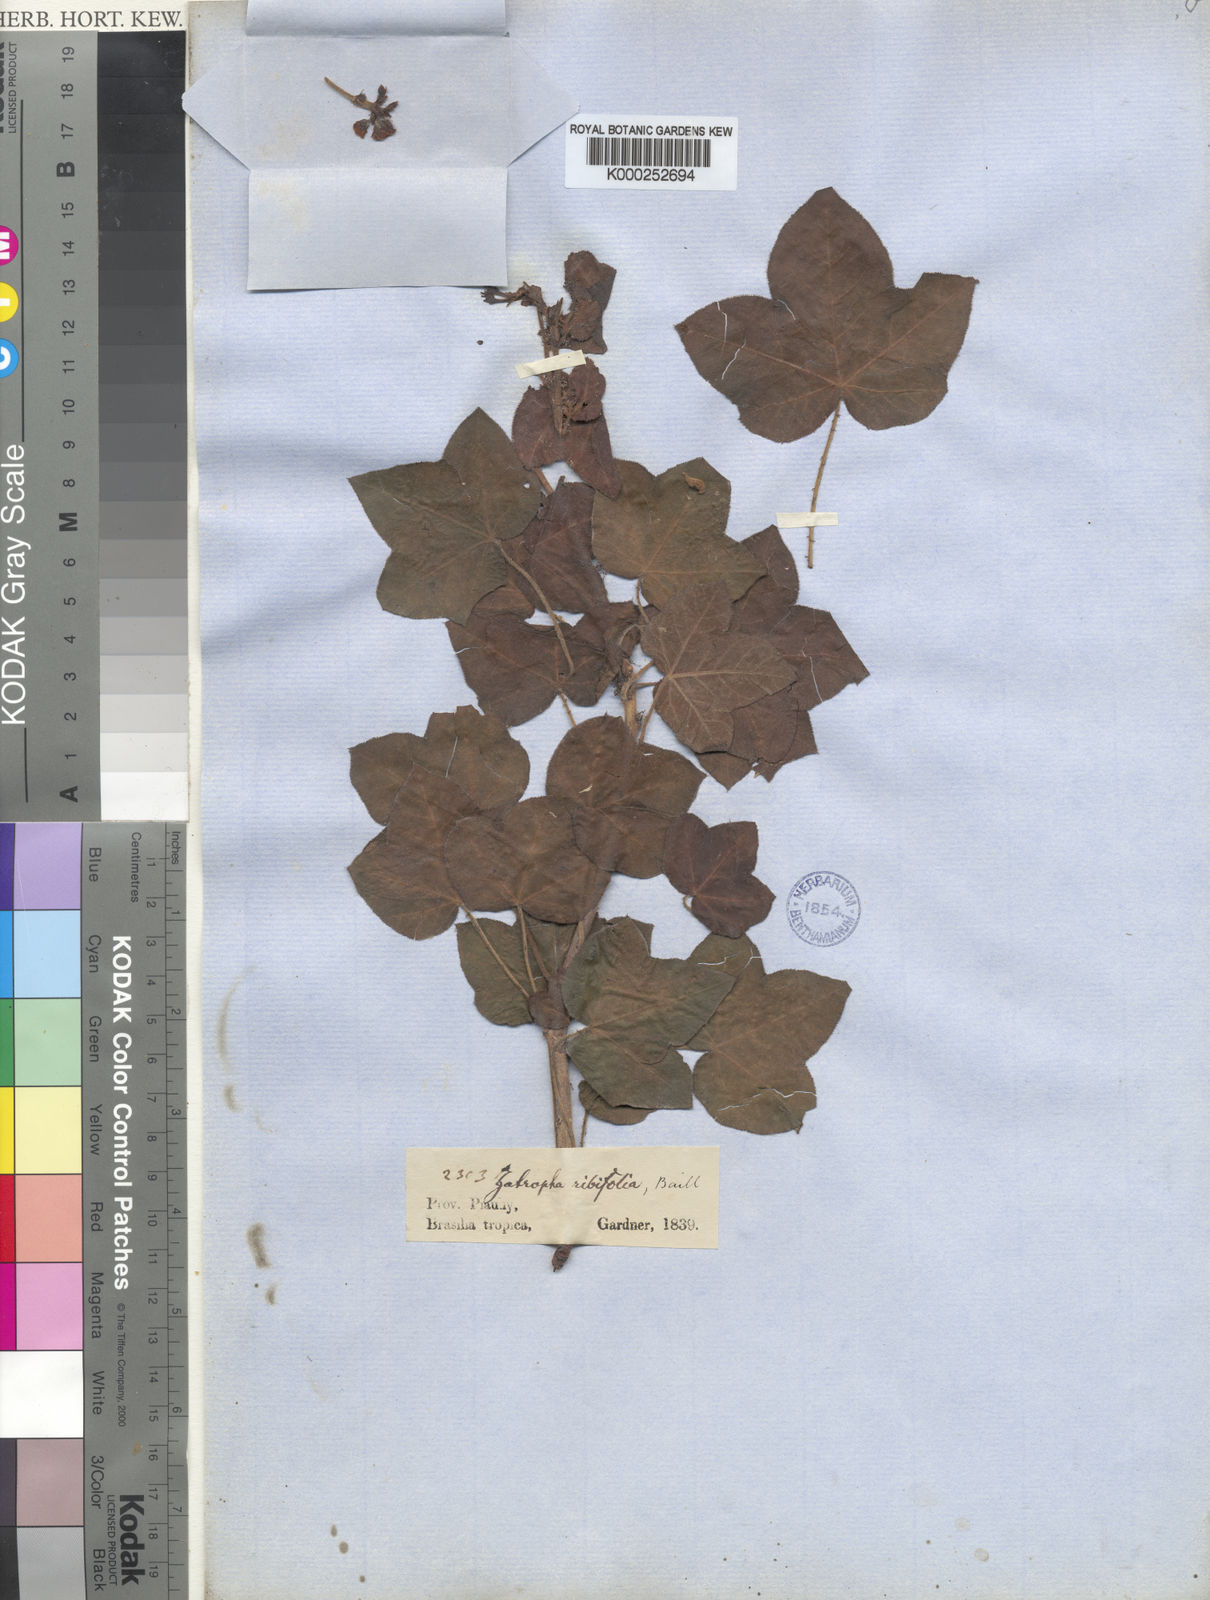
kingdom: Plantae
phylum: Tracheophyta
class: Magnoliopsida
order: Malpighiales
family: Euphorbiaceae
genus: Jatropha
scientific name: Jatropha ribifolia
